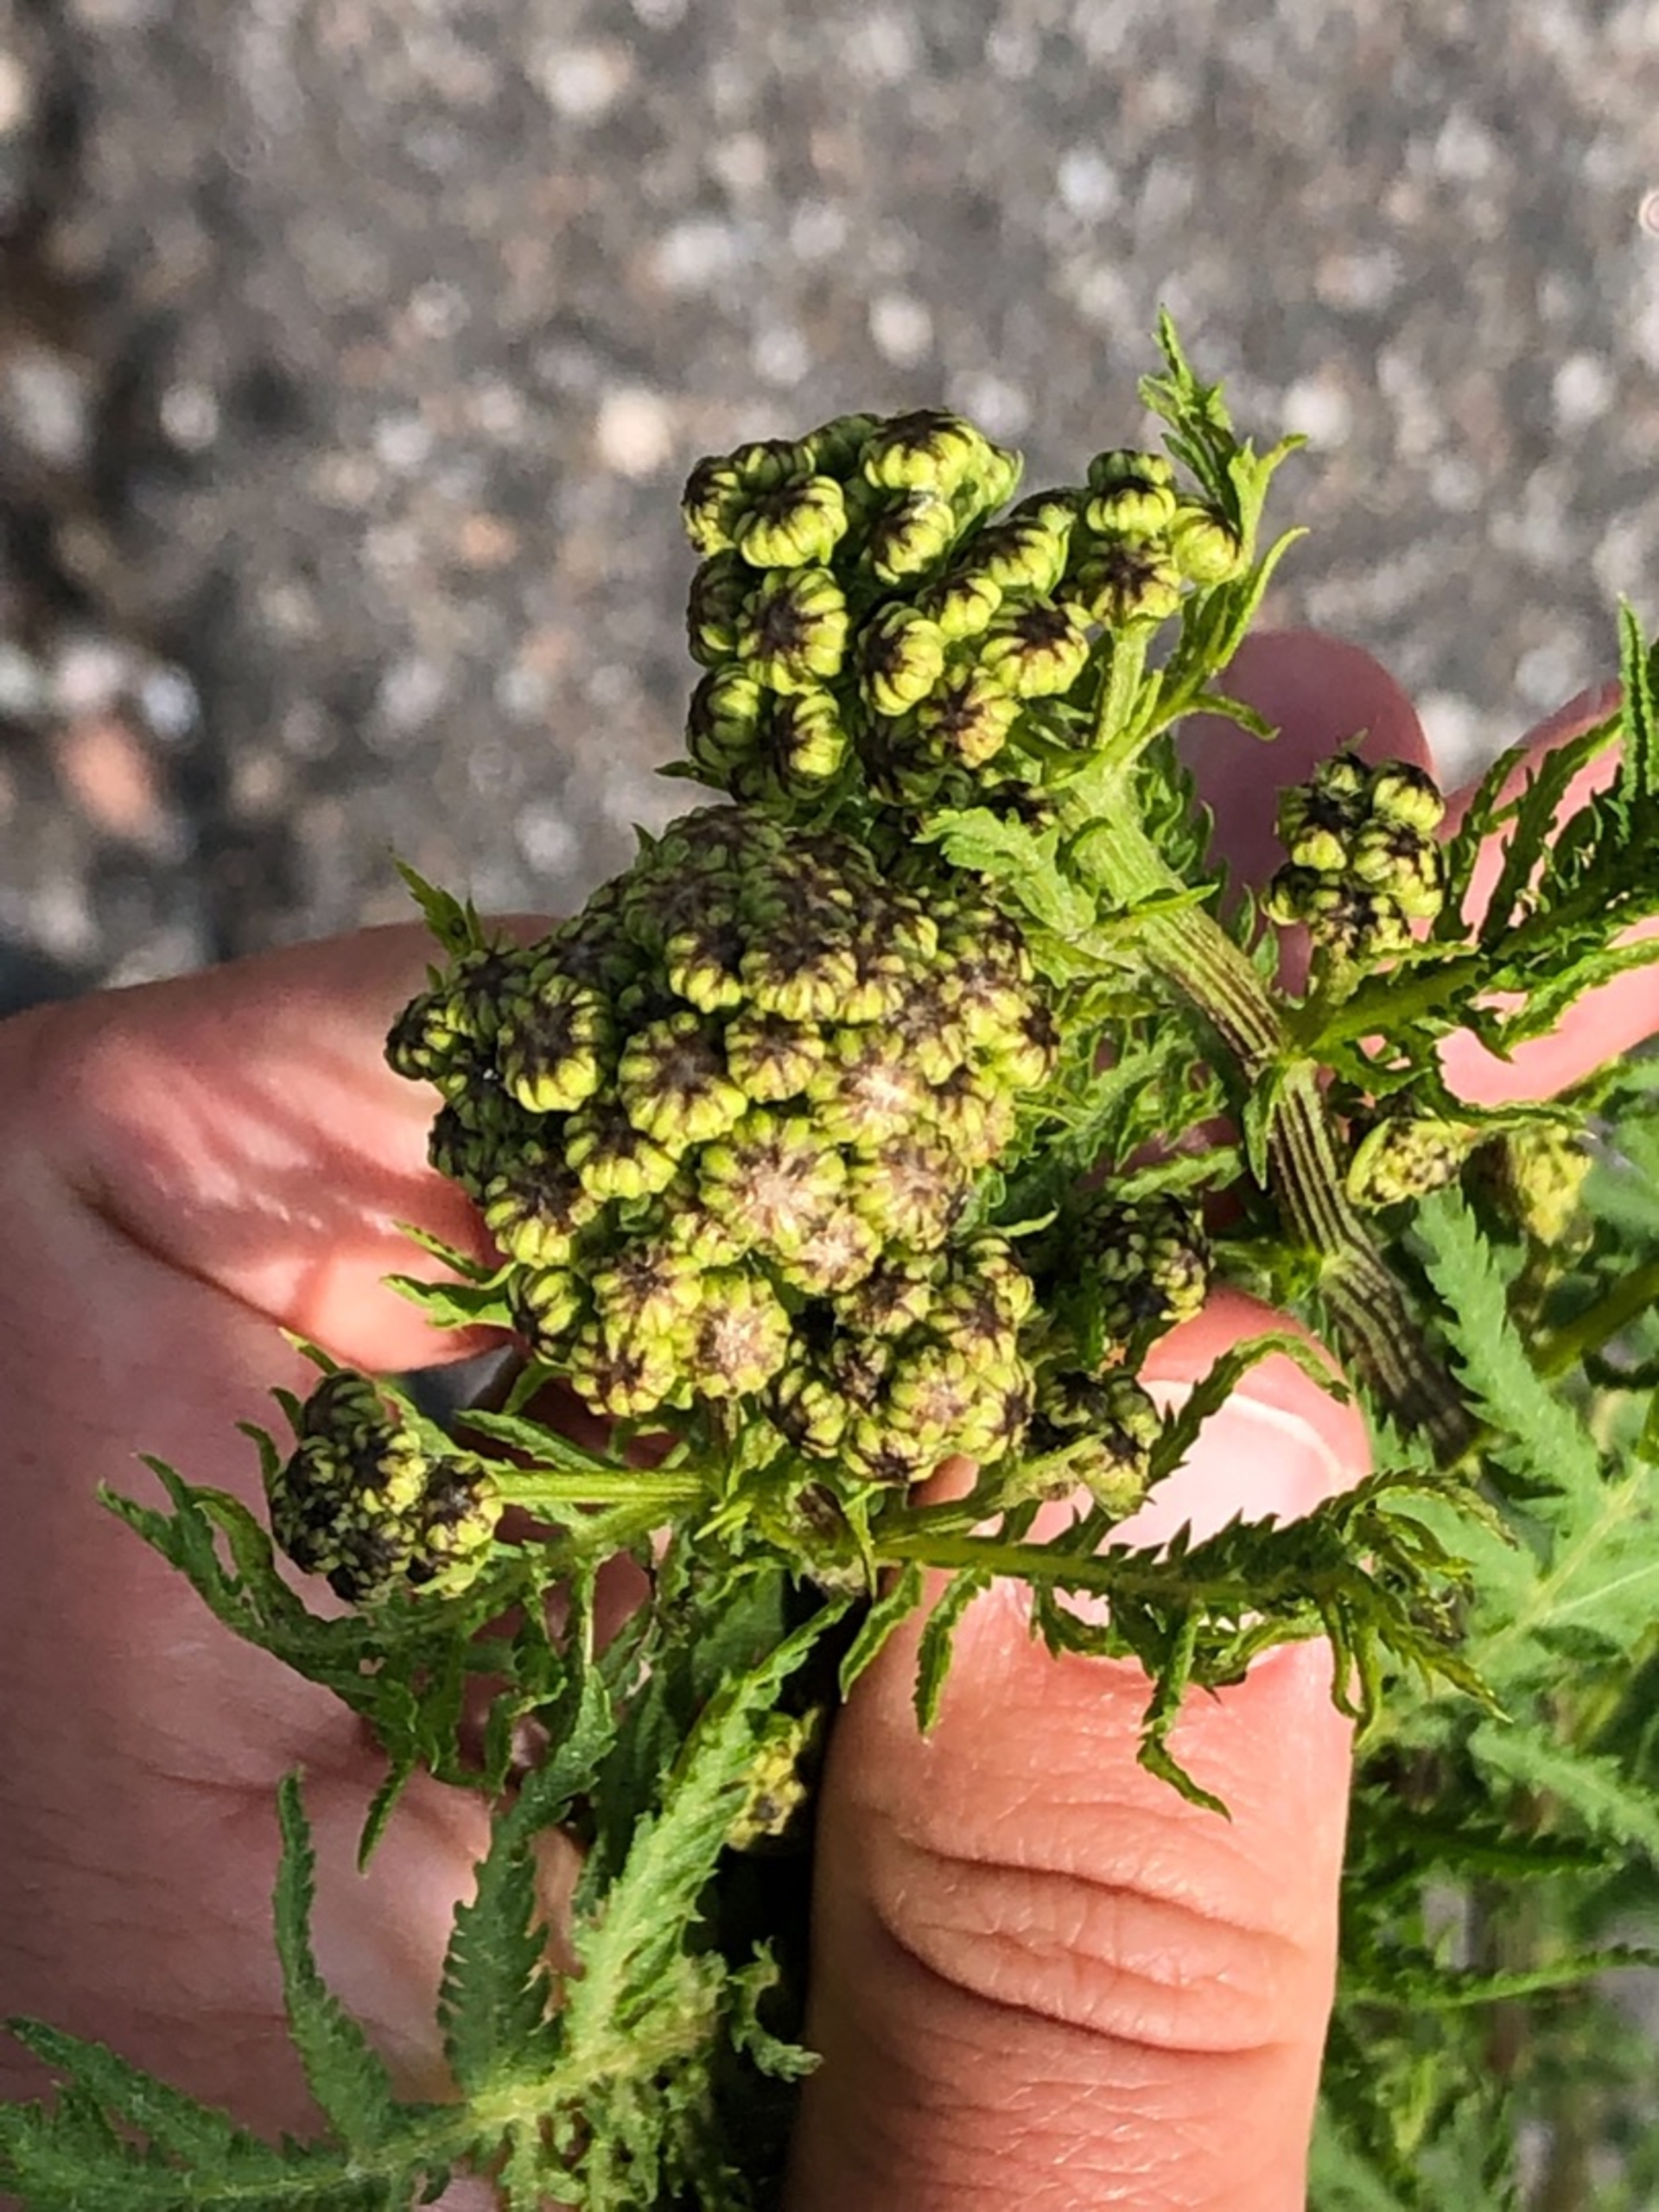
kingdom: Plantae
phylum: Tracheophyta
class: Magnoliopsida
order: Asterales
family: Asteraceae
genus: Tanacetum
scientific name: Tanacetum vulgare
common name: Rejnfan
